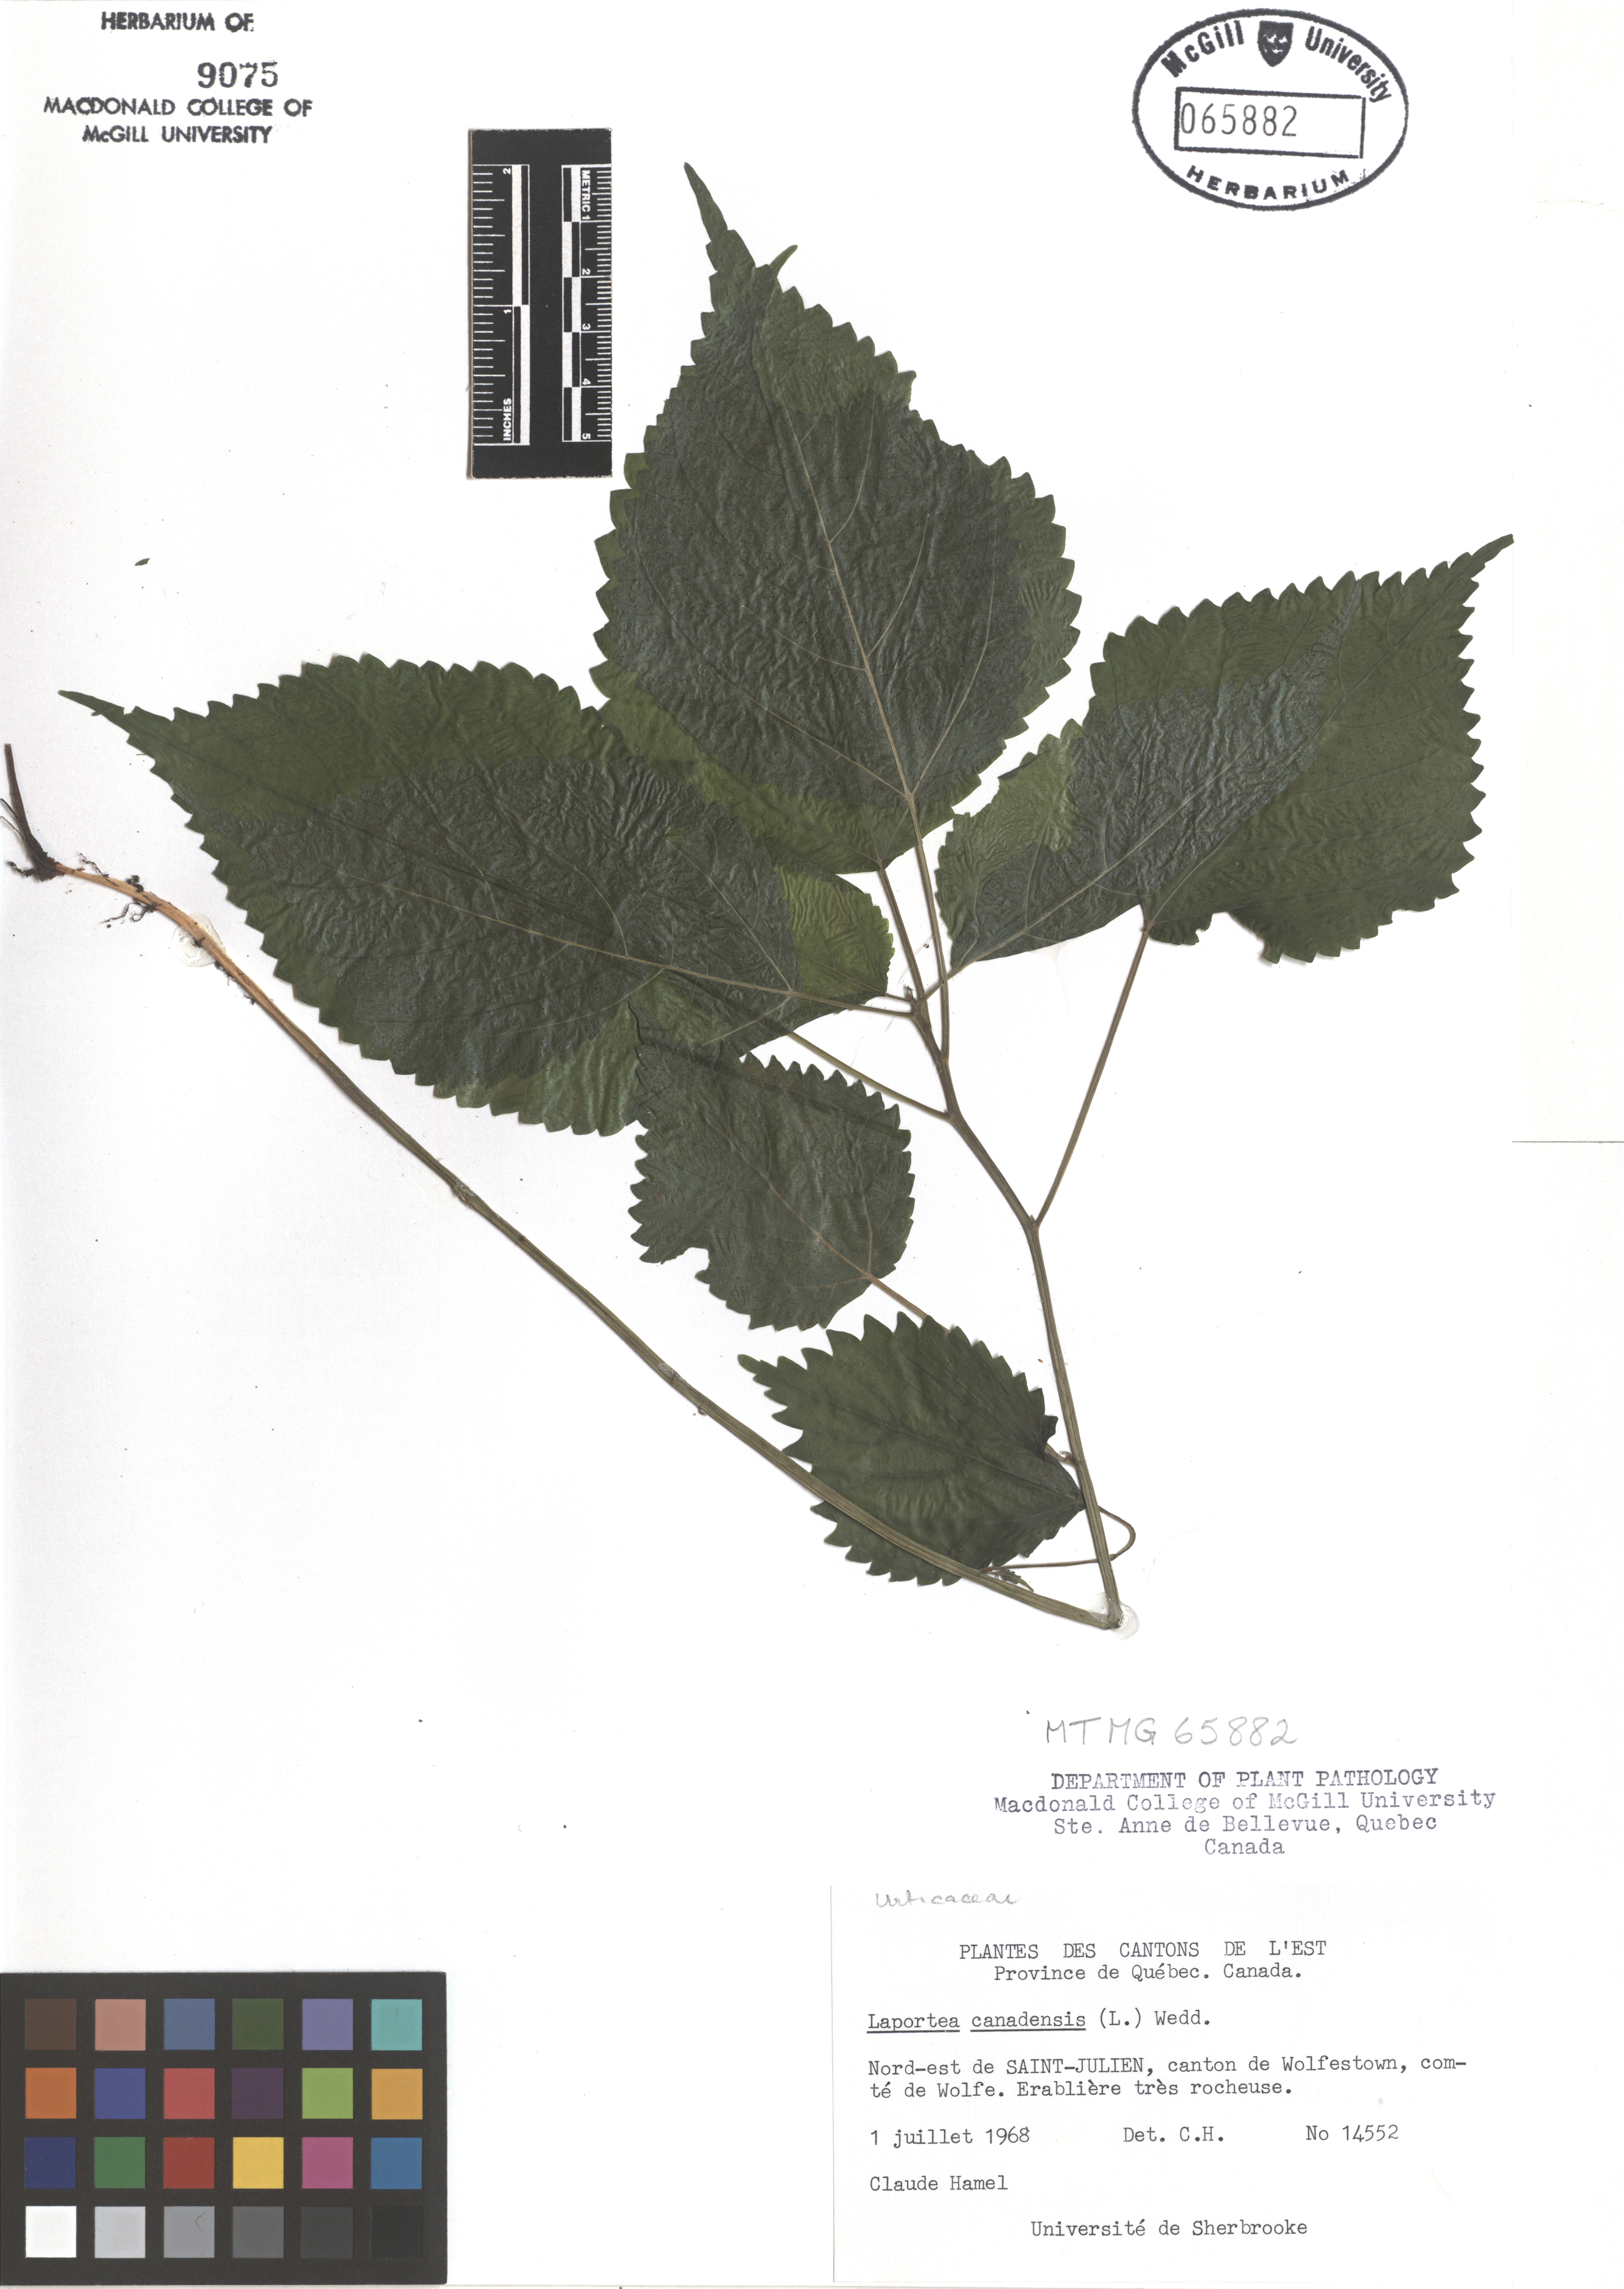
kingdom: Plantae
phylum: Tracheophyta
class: Magnoliopsida
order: Rosales
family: Urticaceae
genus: Laportea
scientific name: Laportea canadensis
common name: Canada nettle
